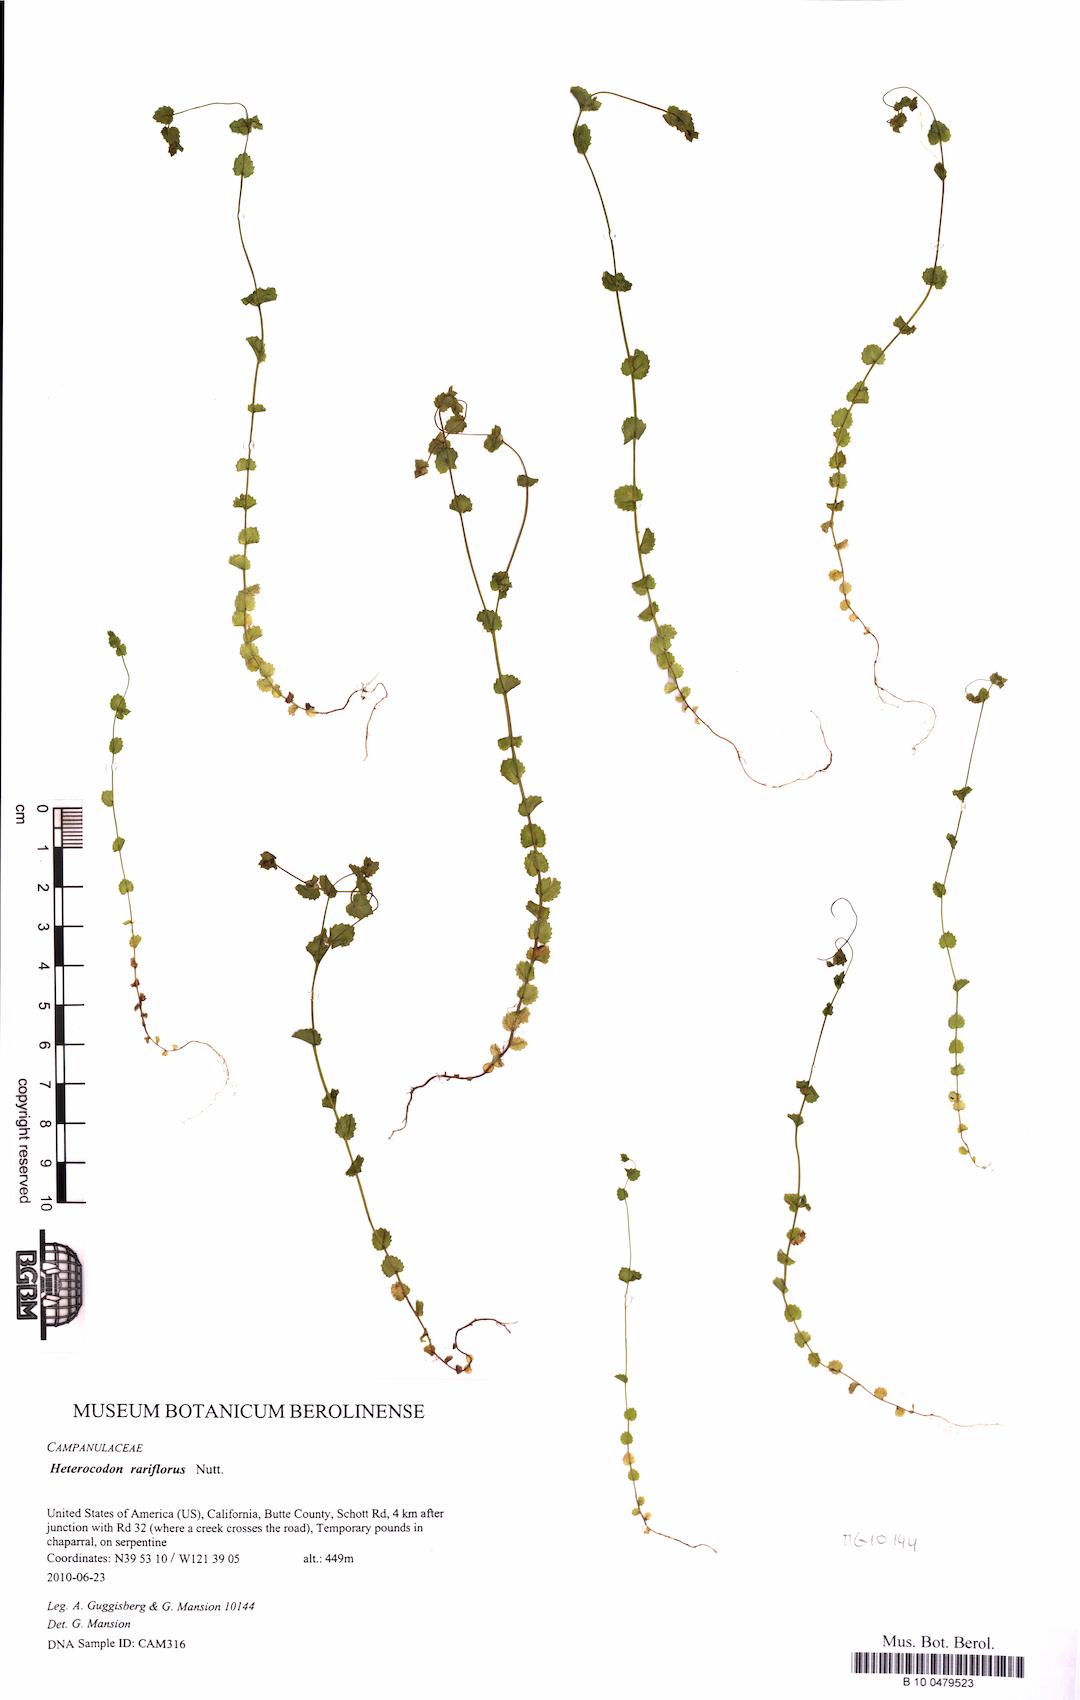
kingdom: Plantae
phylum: Tracheophyta
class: Magnoliopsida
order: Asterales
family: Campanulaceae
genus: Heterocodon
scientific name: Heterocodon rariflorum
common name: Rareflower heterocodon
